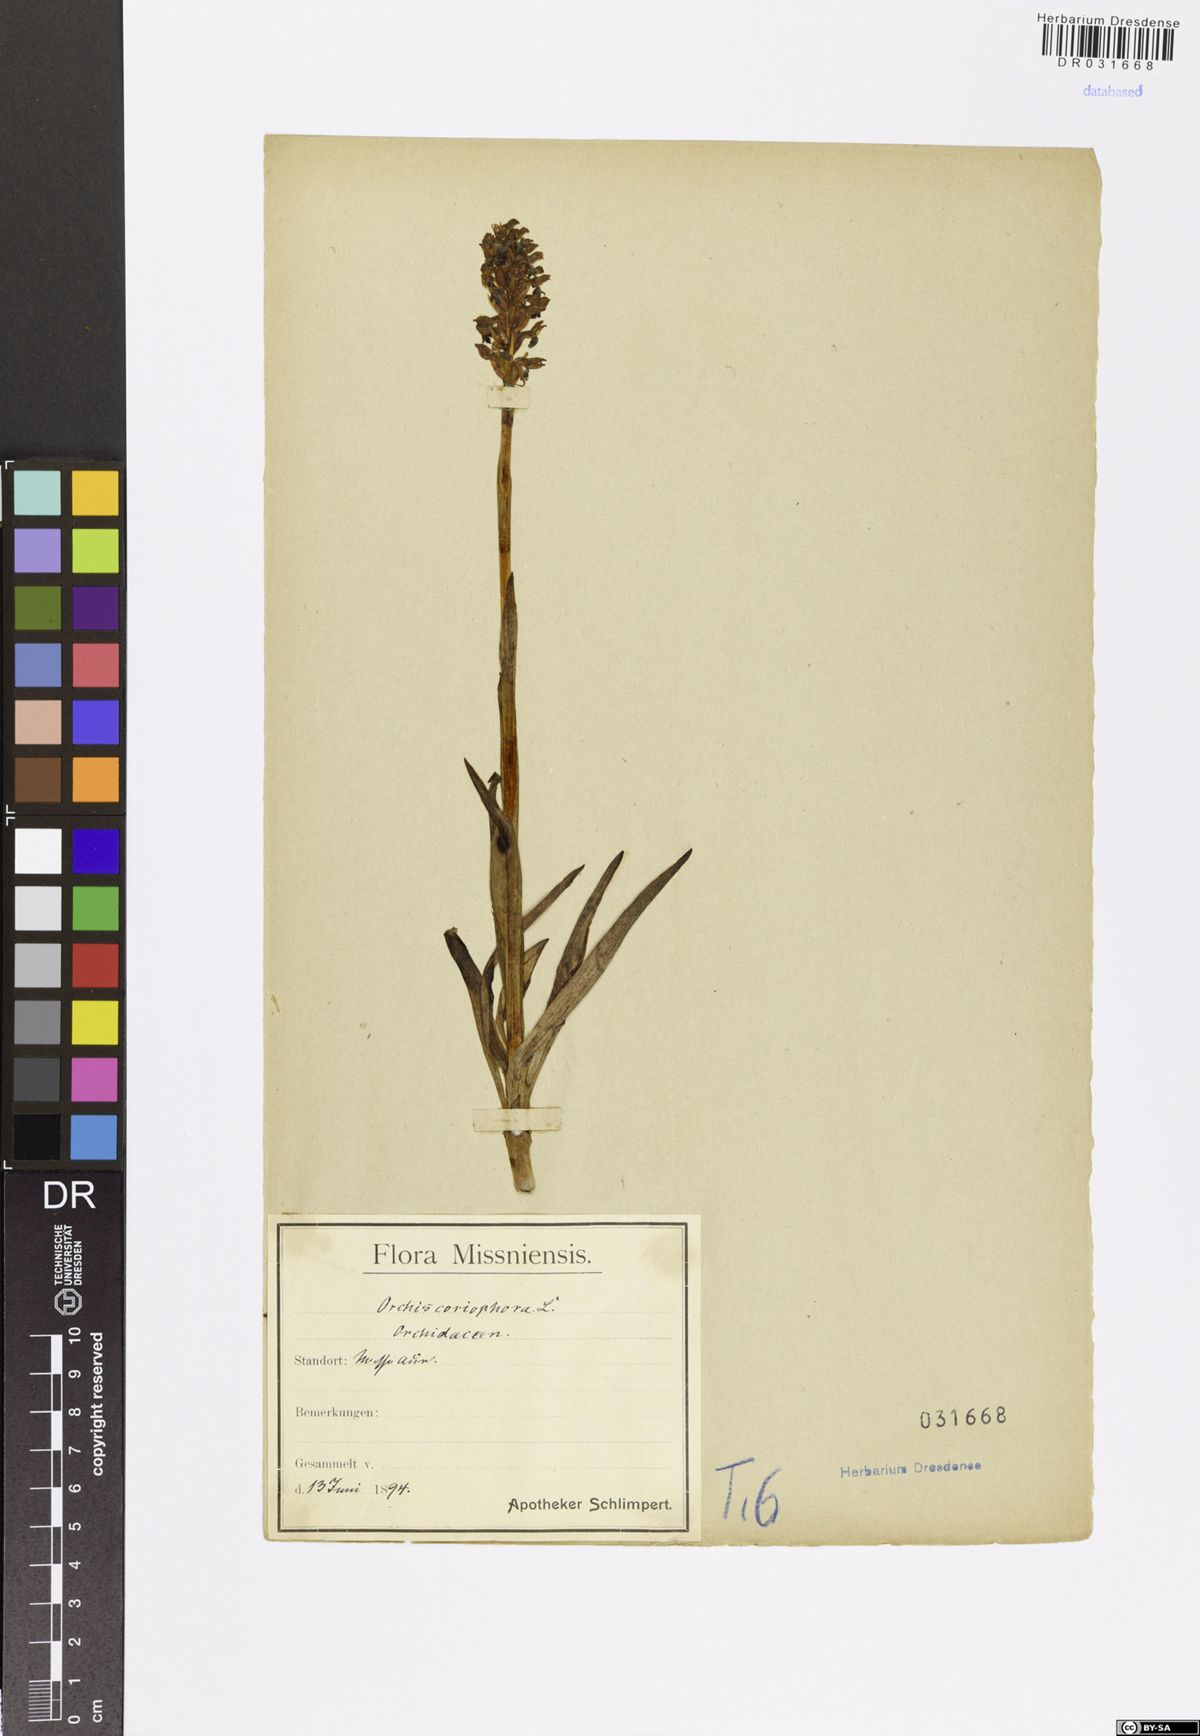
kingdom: Plantae
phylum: Tracheophyta
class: Liliopsida
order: Asparagales
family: Orchidaceae
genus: Anacamptis
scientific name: Anacamptis coriophora
